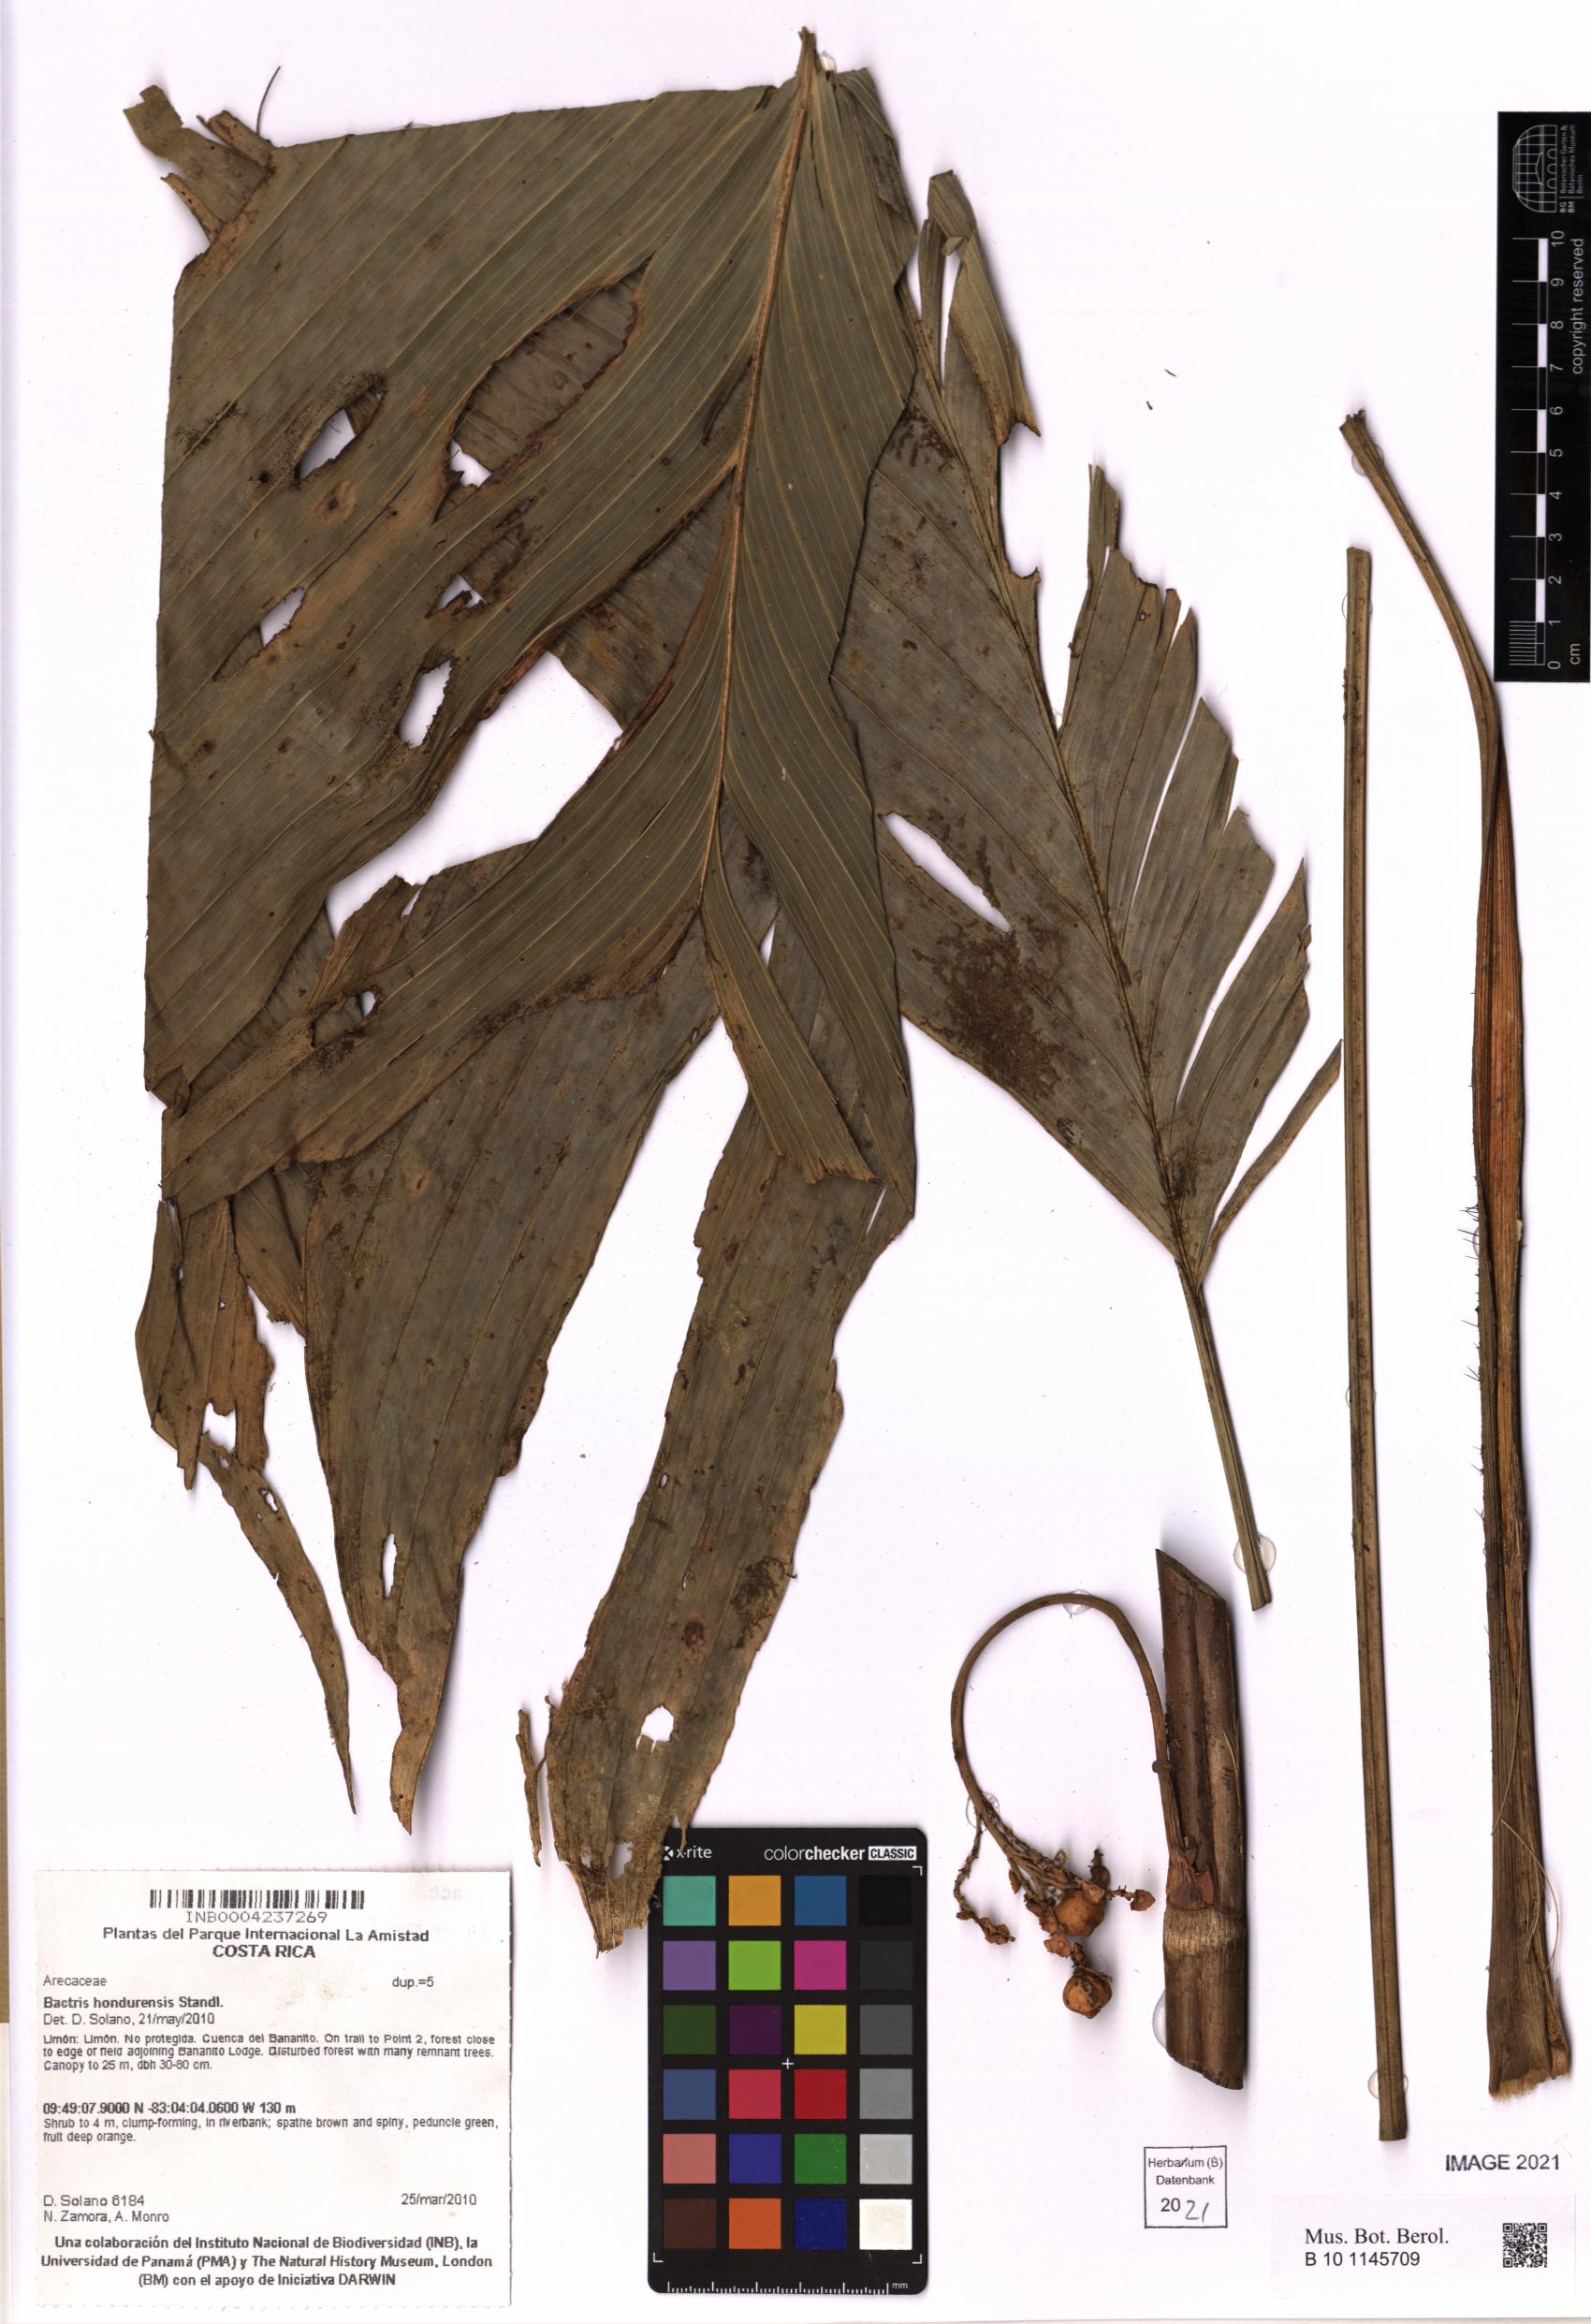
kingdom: Plantae
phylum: Tracheophyta
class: Liliopsida
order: Arecales
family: Arecaceae
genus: Bactris
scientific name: Bactris obovata
